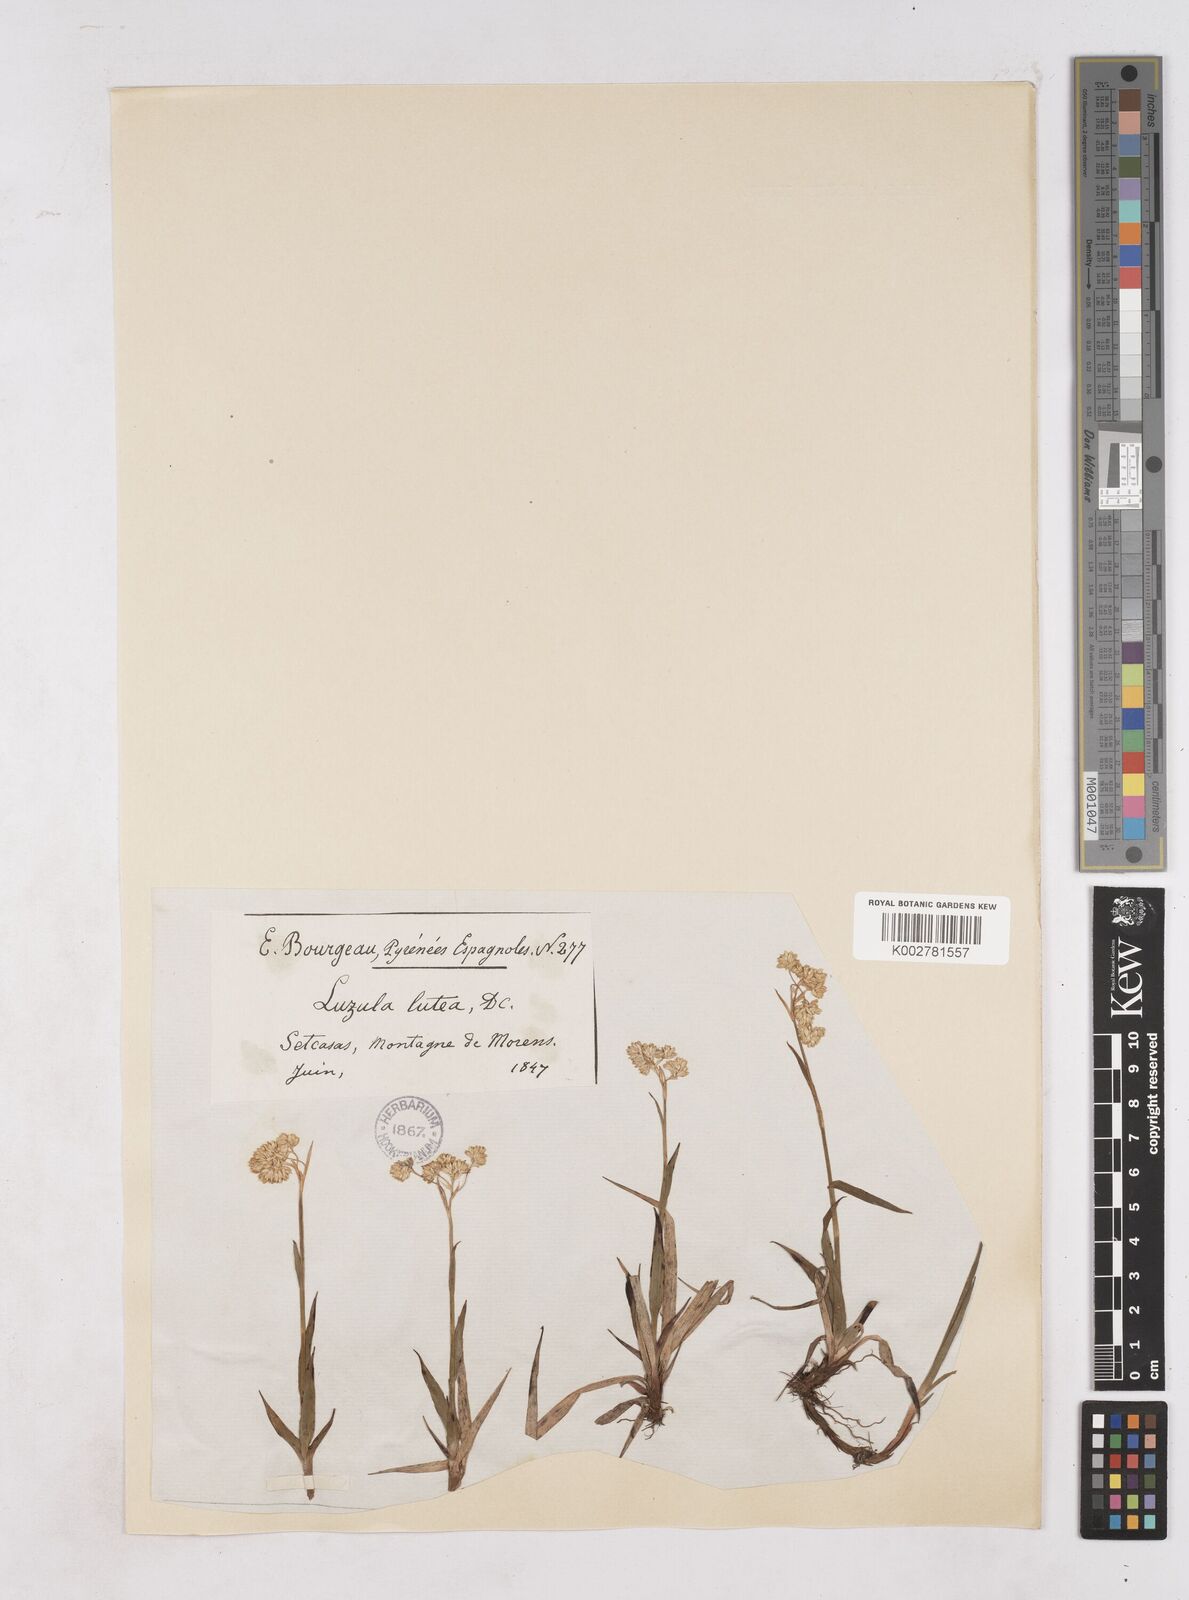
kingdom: Plantae
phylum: Tracheophyta
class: Liliopsida
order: Poales
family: Juncaceae
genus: Luzula
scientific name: Luzula lutea
